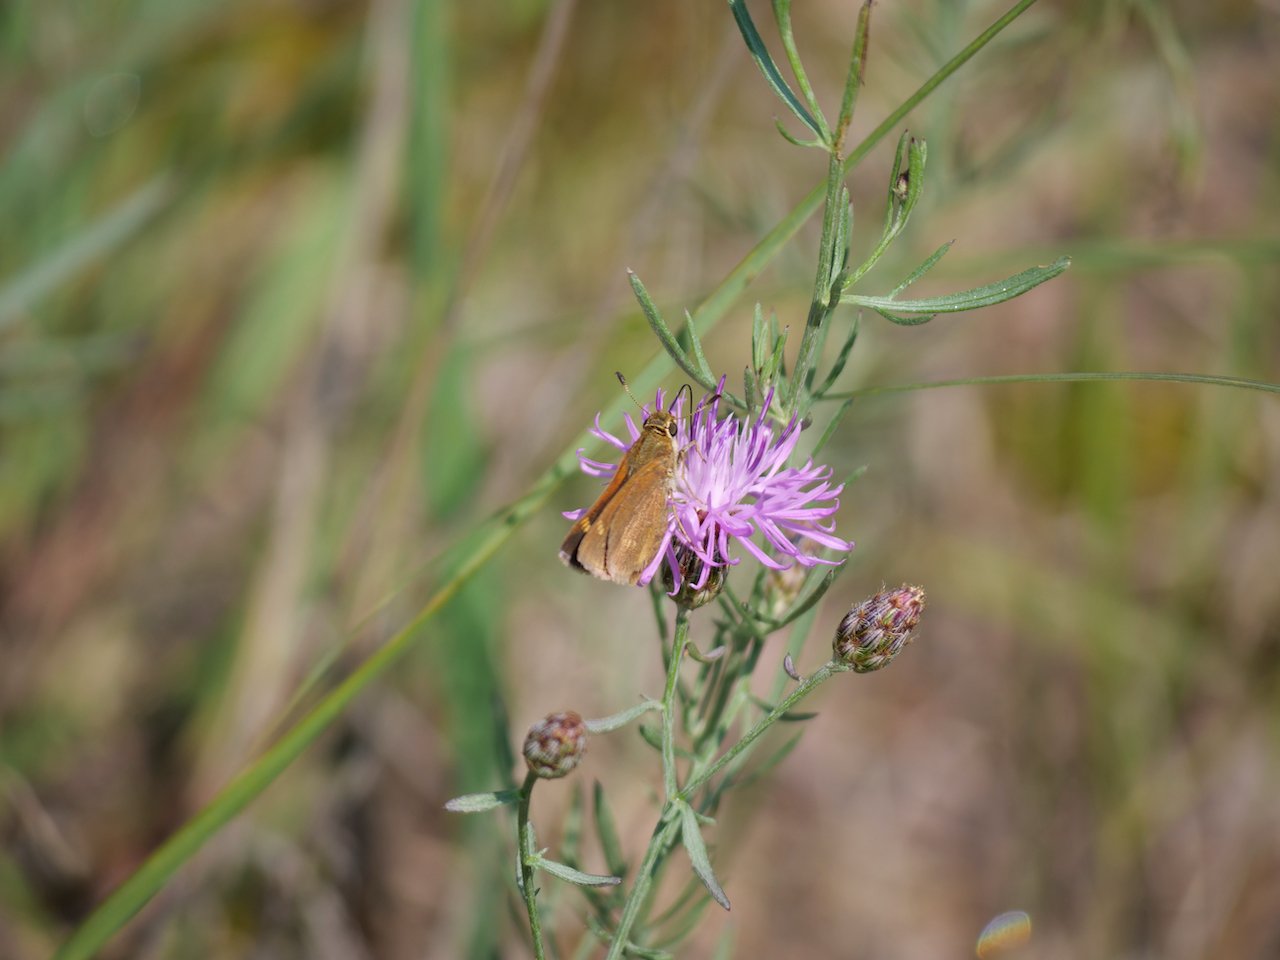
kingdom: Animalia
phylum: Arthropoda
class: Insecta
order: Lepidoptera
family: Hesperiidae
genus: Polites
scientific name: Polites
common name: Crossline Skipper
